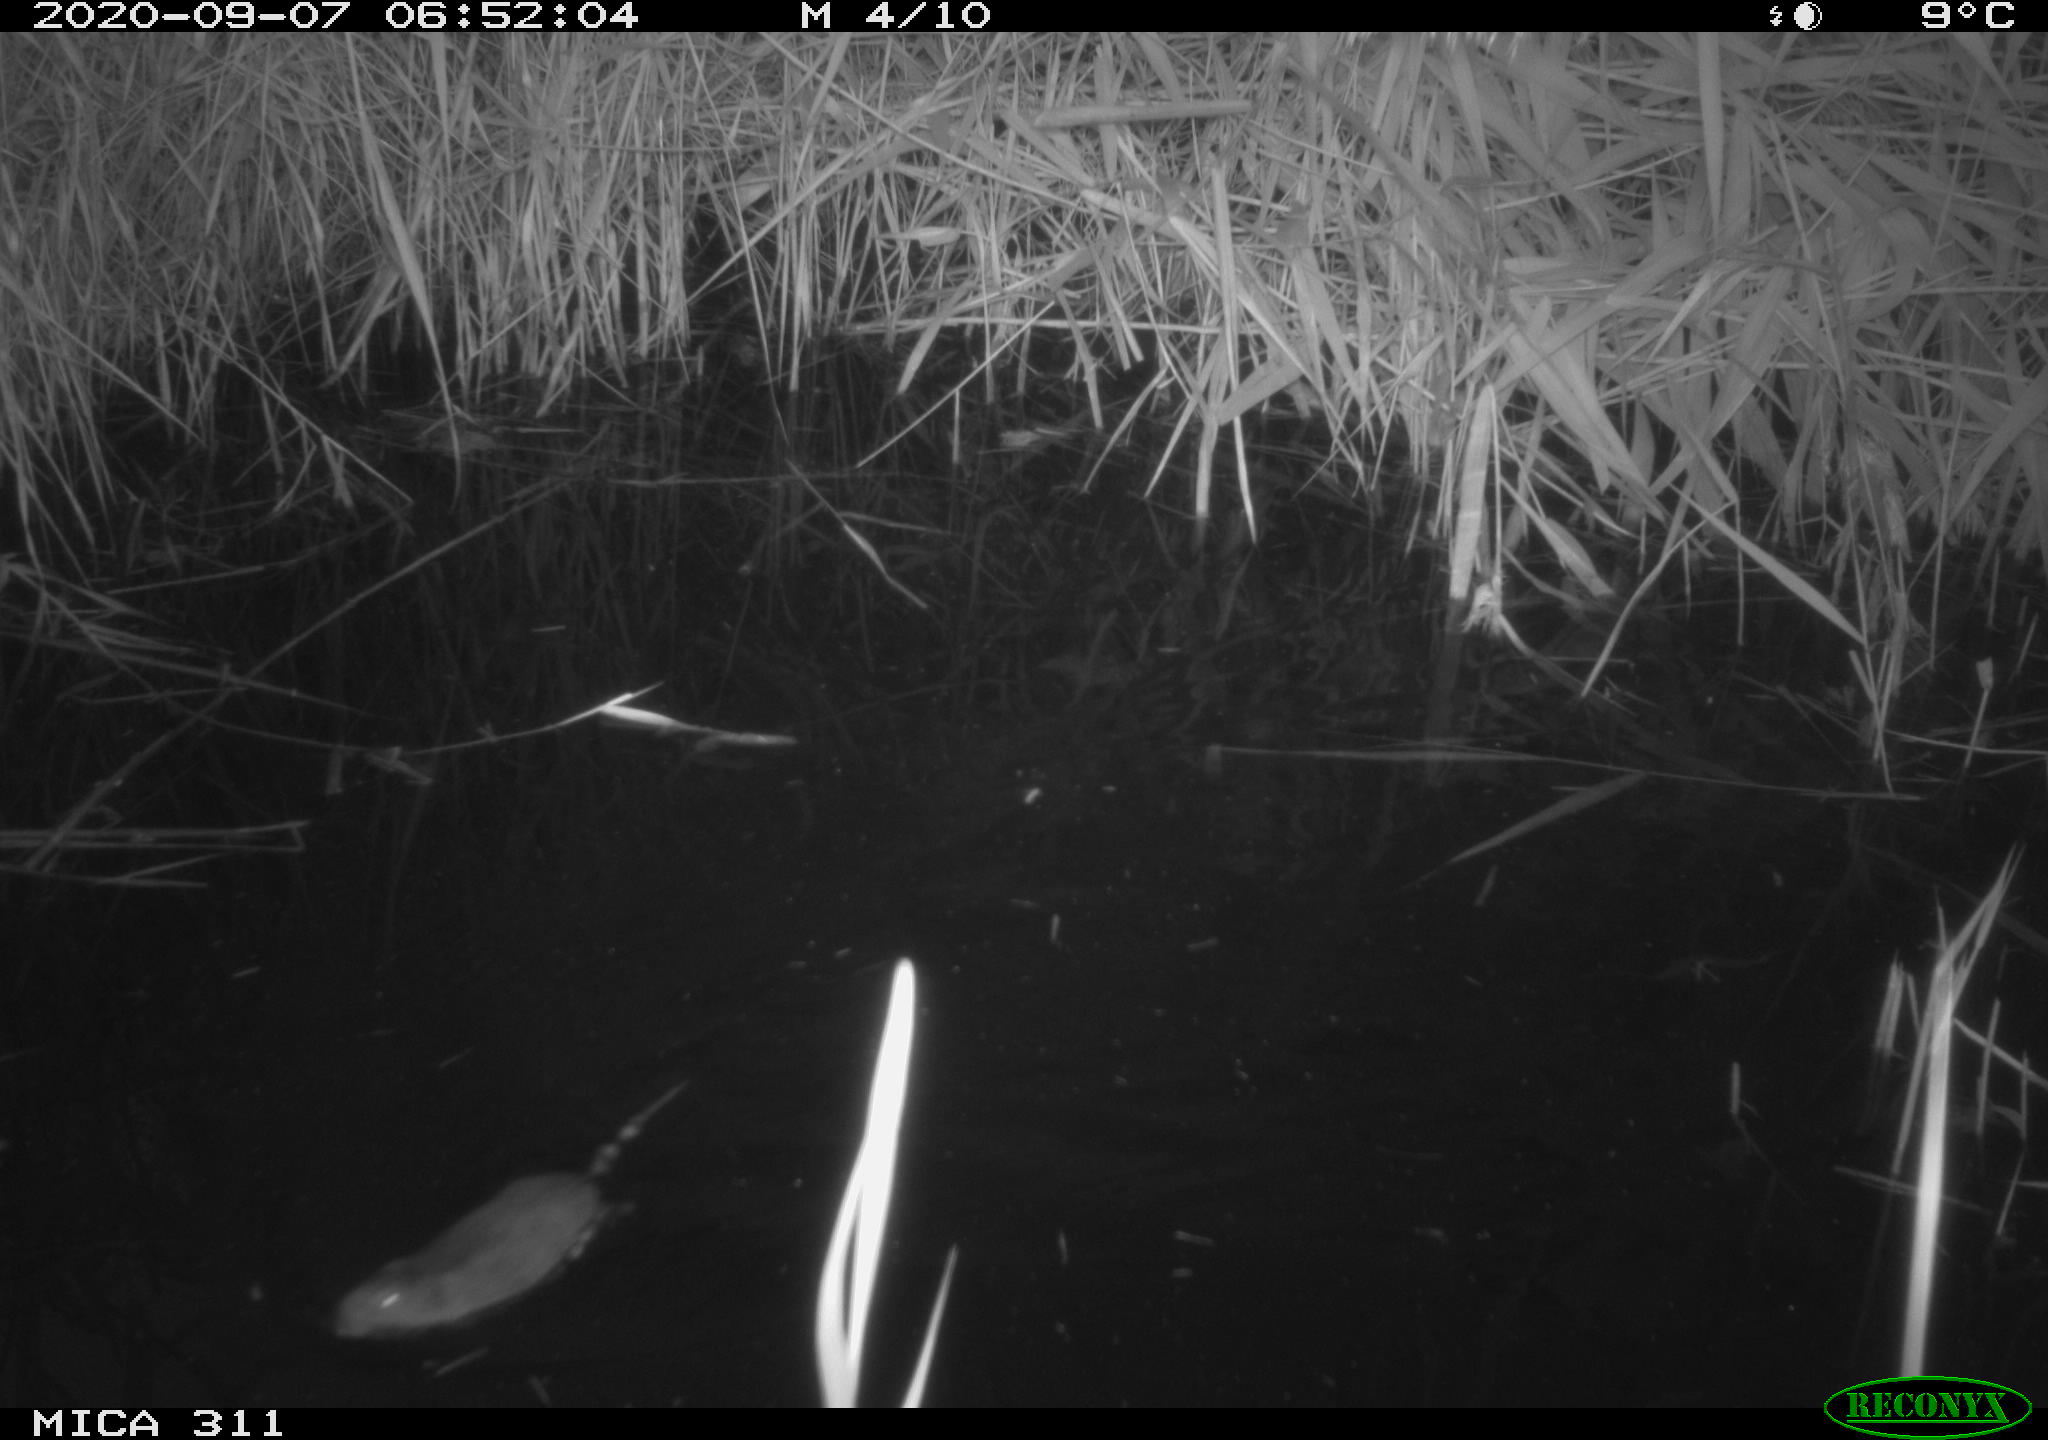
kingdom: Animalia
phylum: Chordata
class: Mammalia
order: Rodentia
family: Cricetidae
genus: Ondatra
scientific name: Ondatra zibethicus
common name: Muskrat
